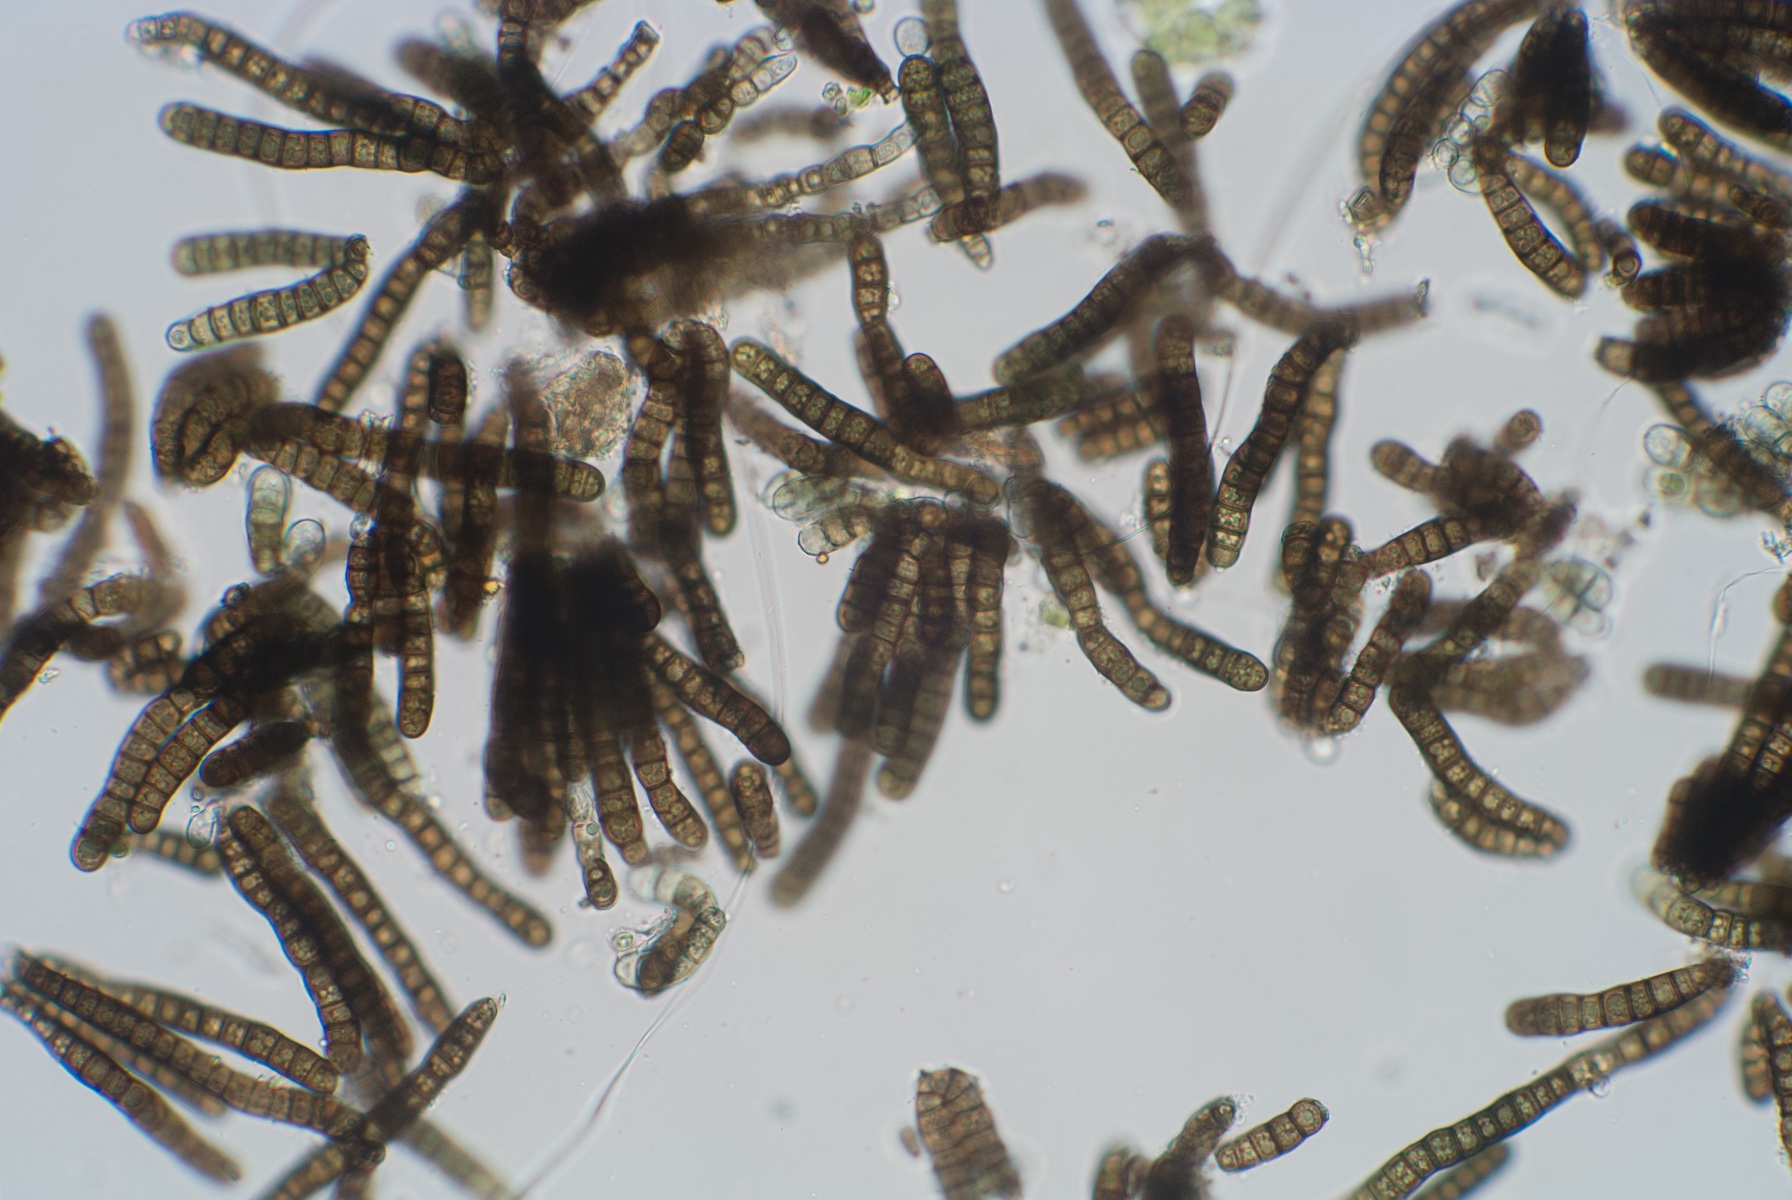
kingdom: Fungi
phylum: Ascomycota
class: Dothideomycetes
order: Mytilinidiales
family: Mytilinidiaceae
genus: Taeniolella
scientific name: Taeniolella stilbosporoides
